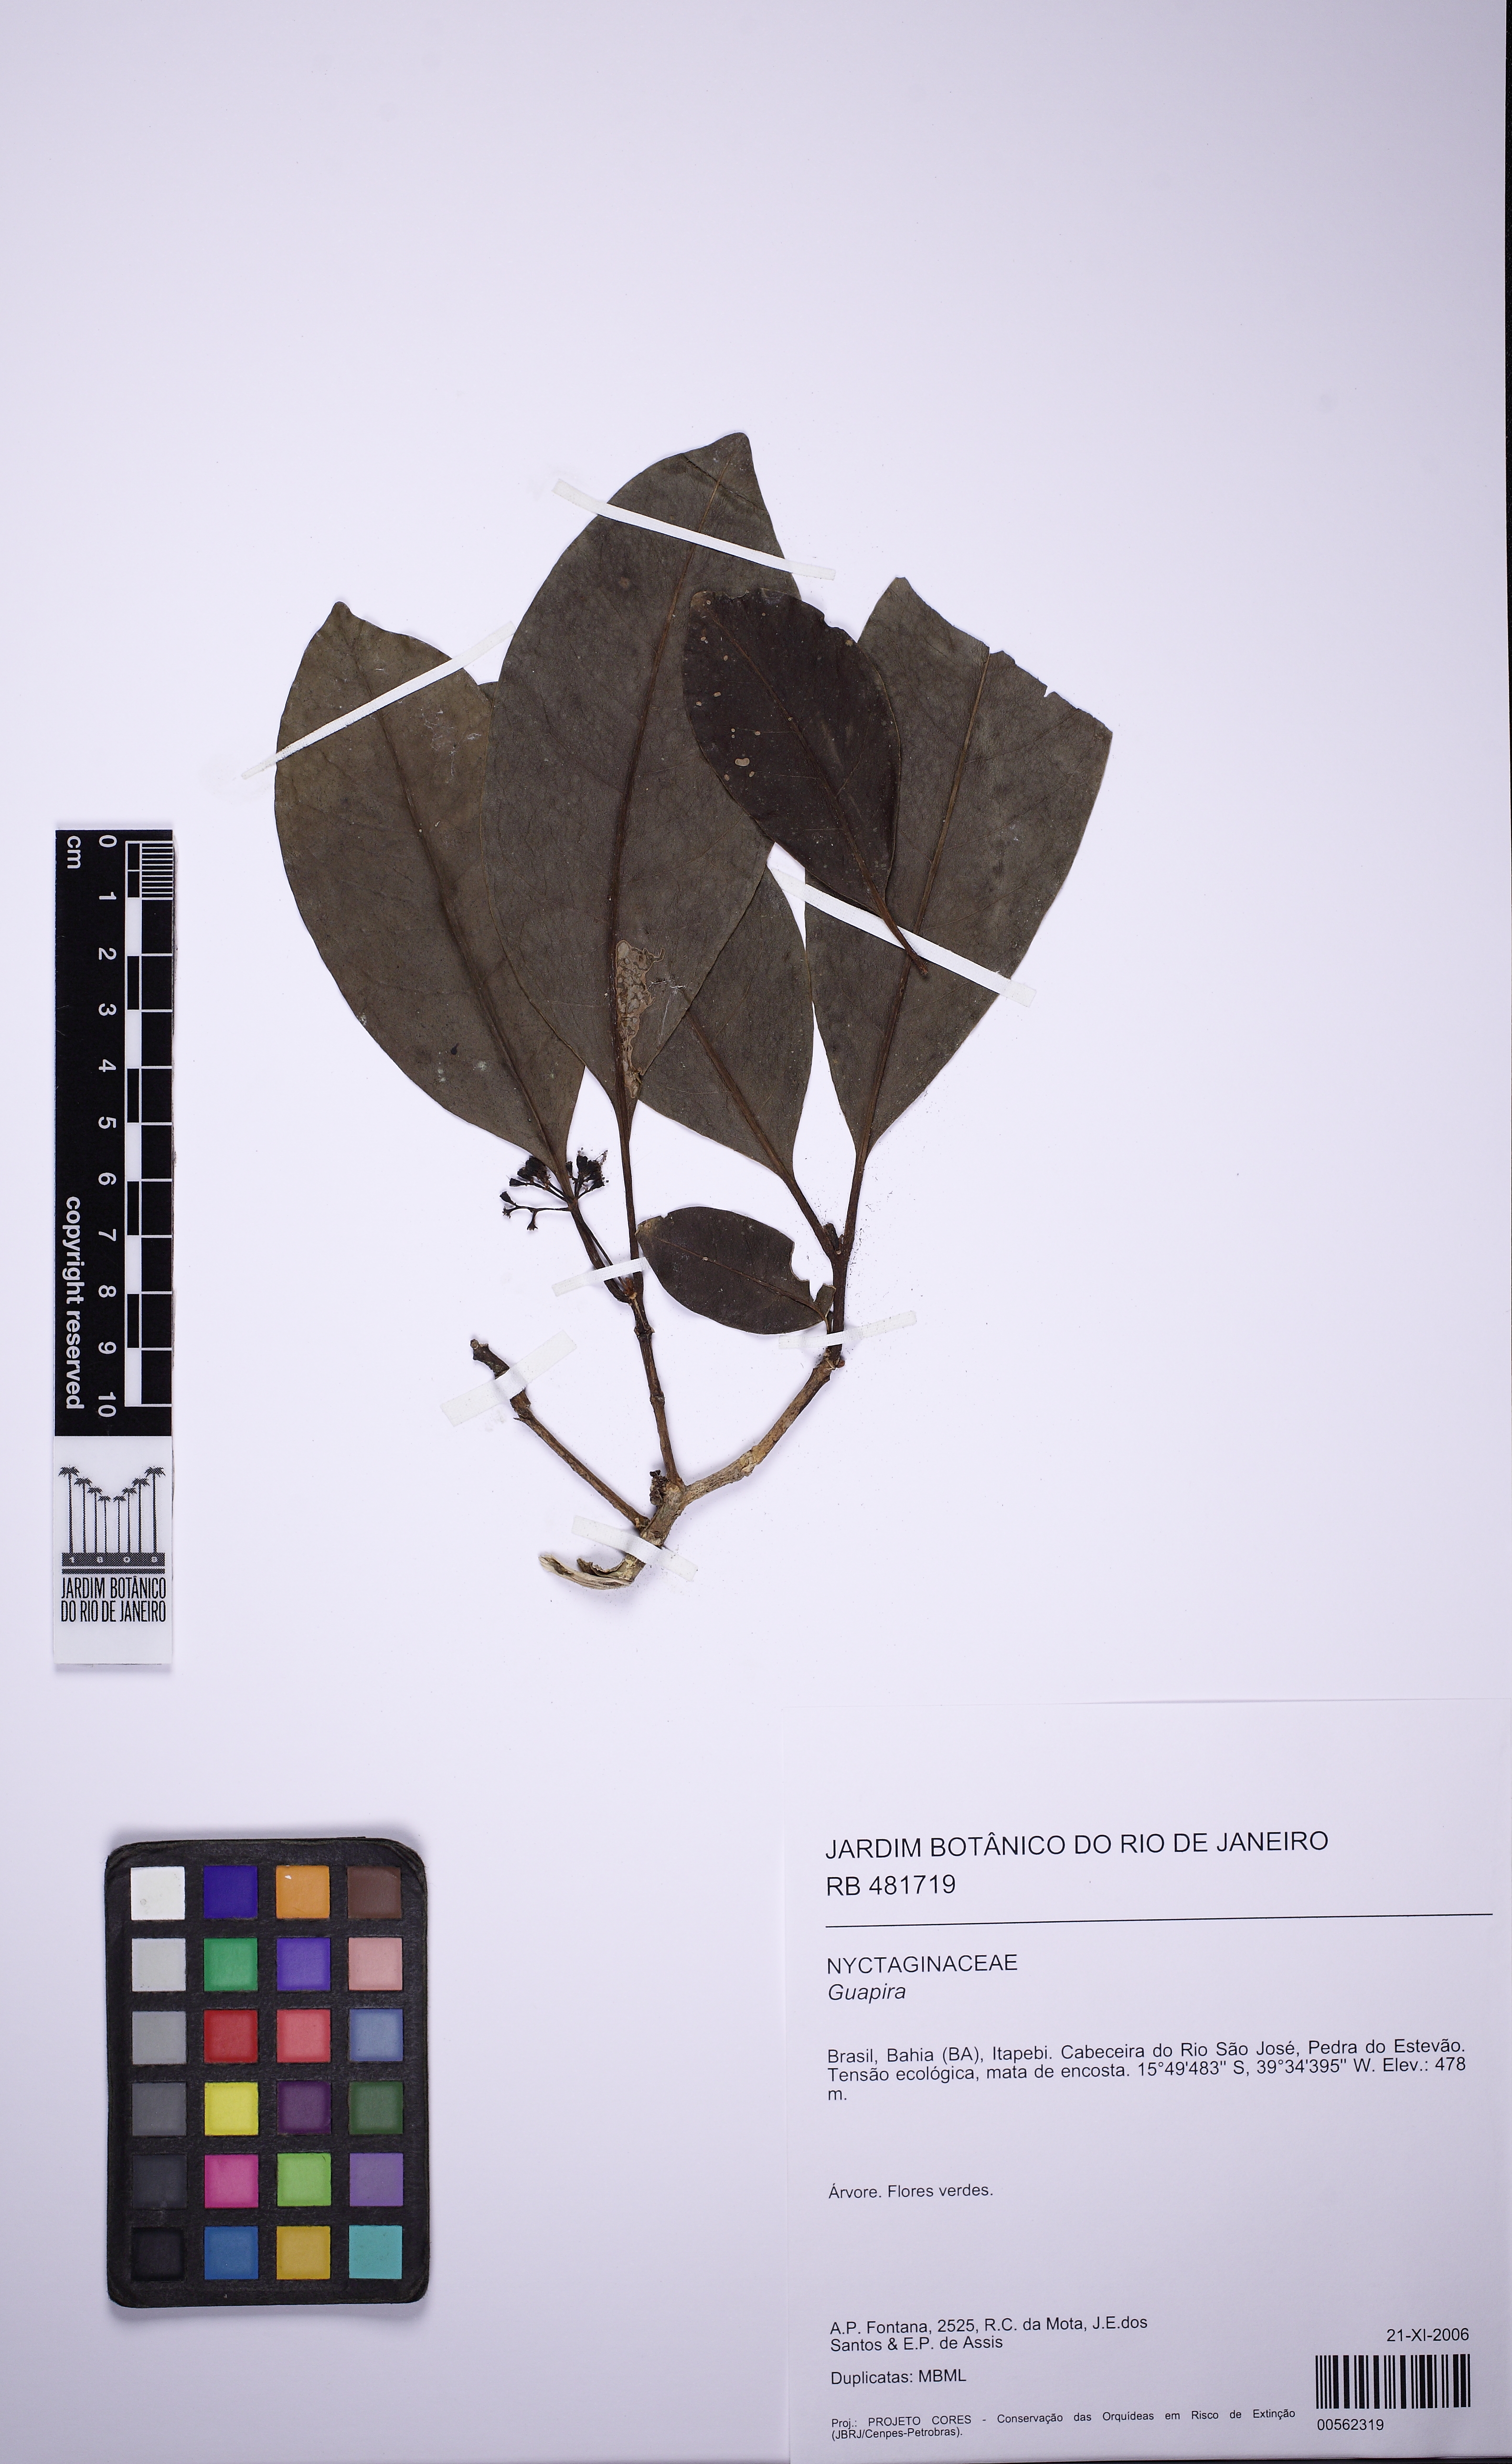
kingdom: Plantae
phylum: Tracheophyta
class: Magnoliopsida
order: Caryophyllales
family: Nyctaginaceae
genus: Guapira
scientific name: Guapira venosa
